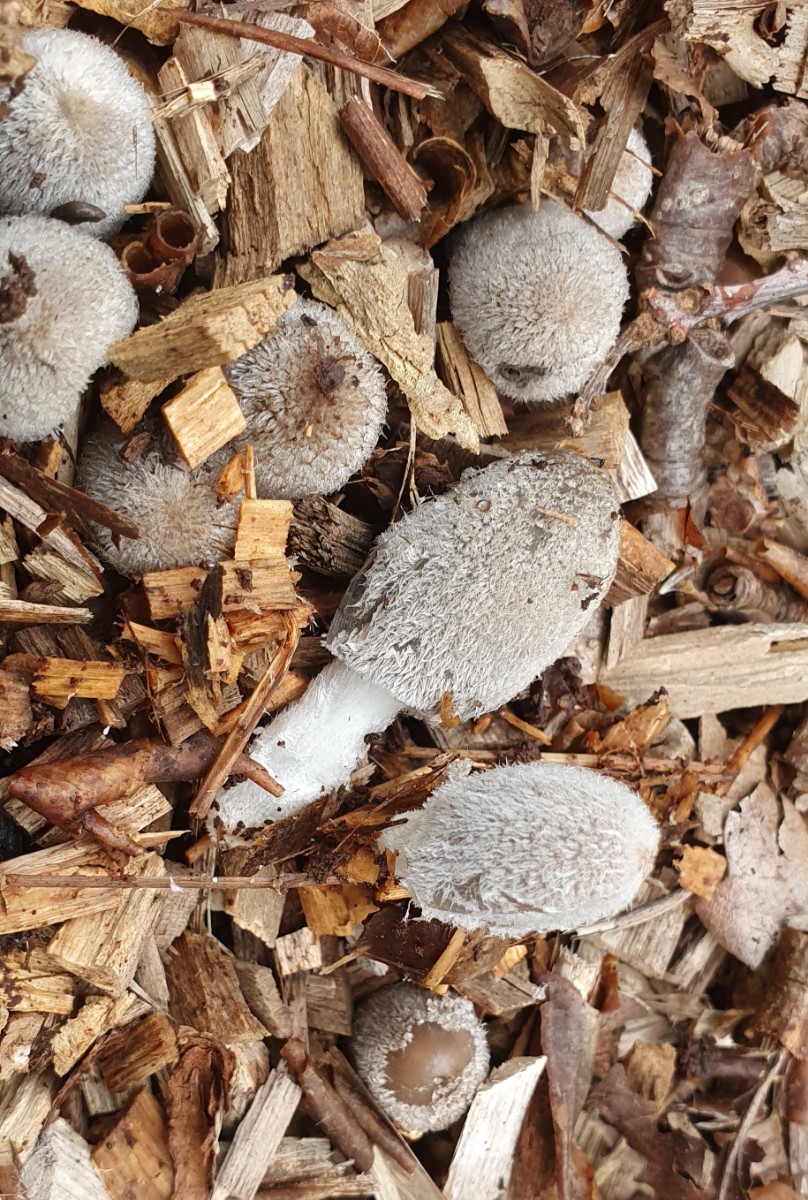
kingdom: Fungi
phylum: Basidiomycota
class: Agaricomycetes
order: Agaricales
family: Psathyrellaceae
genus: Coprinopsis
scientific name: Coprinopsis lagopus
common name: dunstokket blækhat
